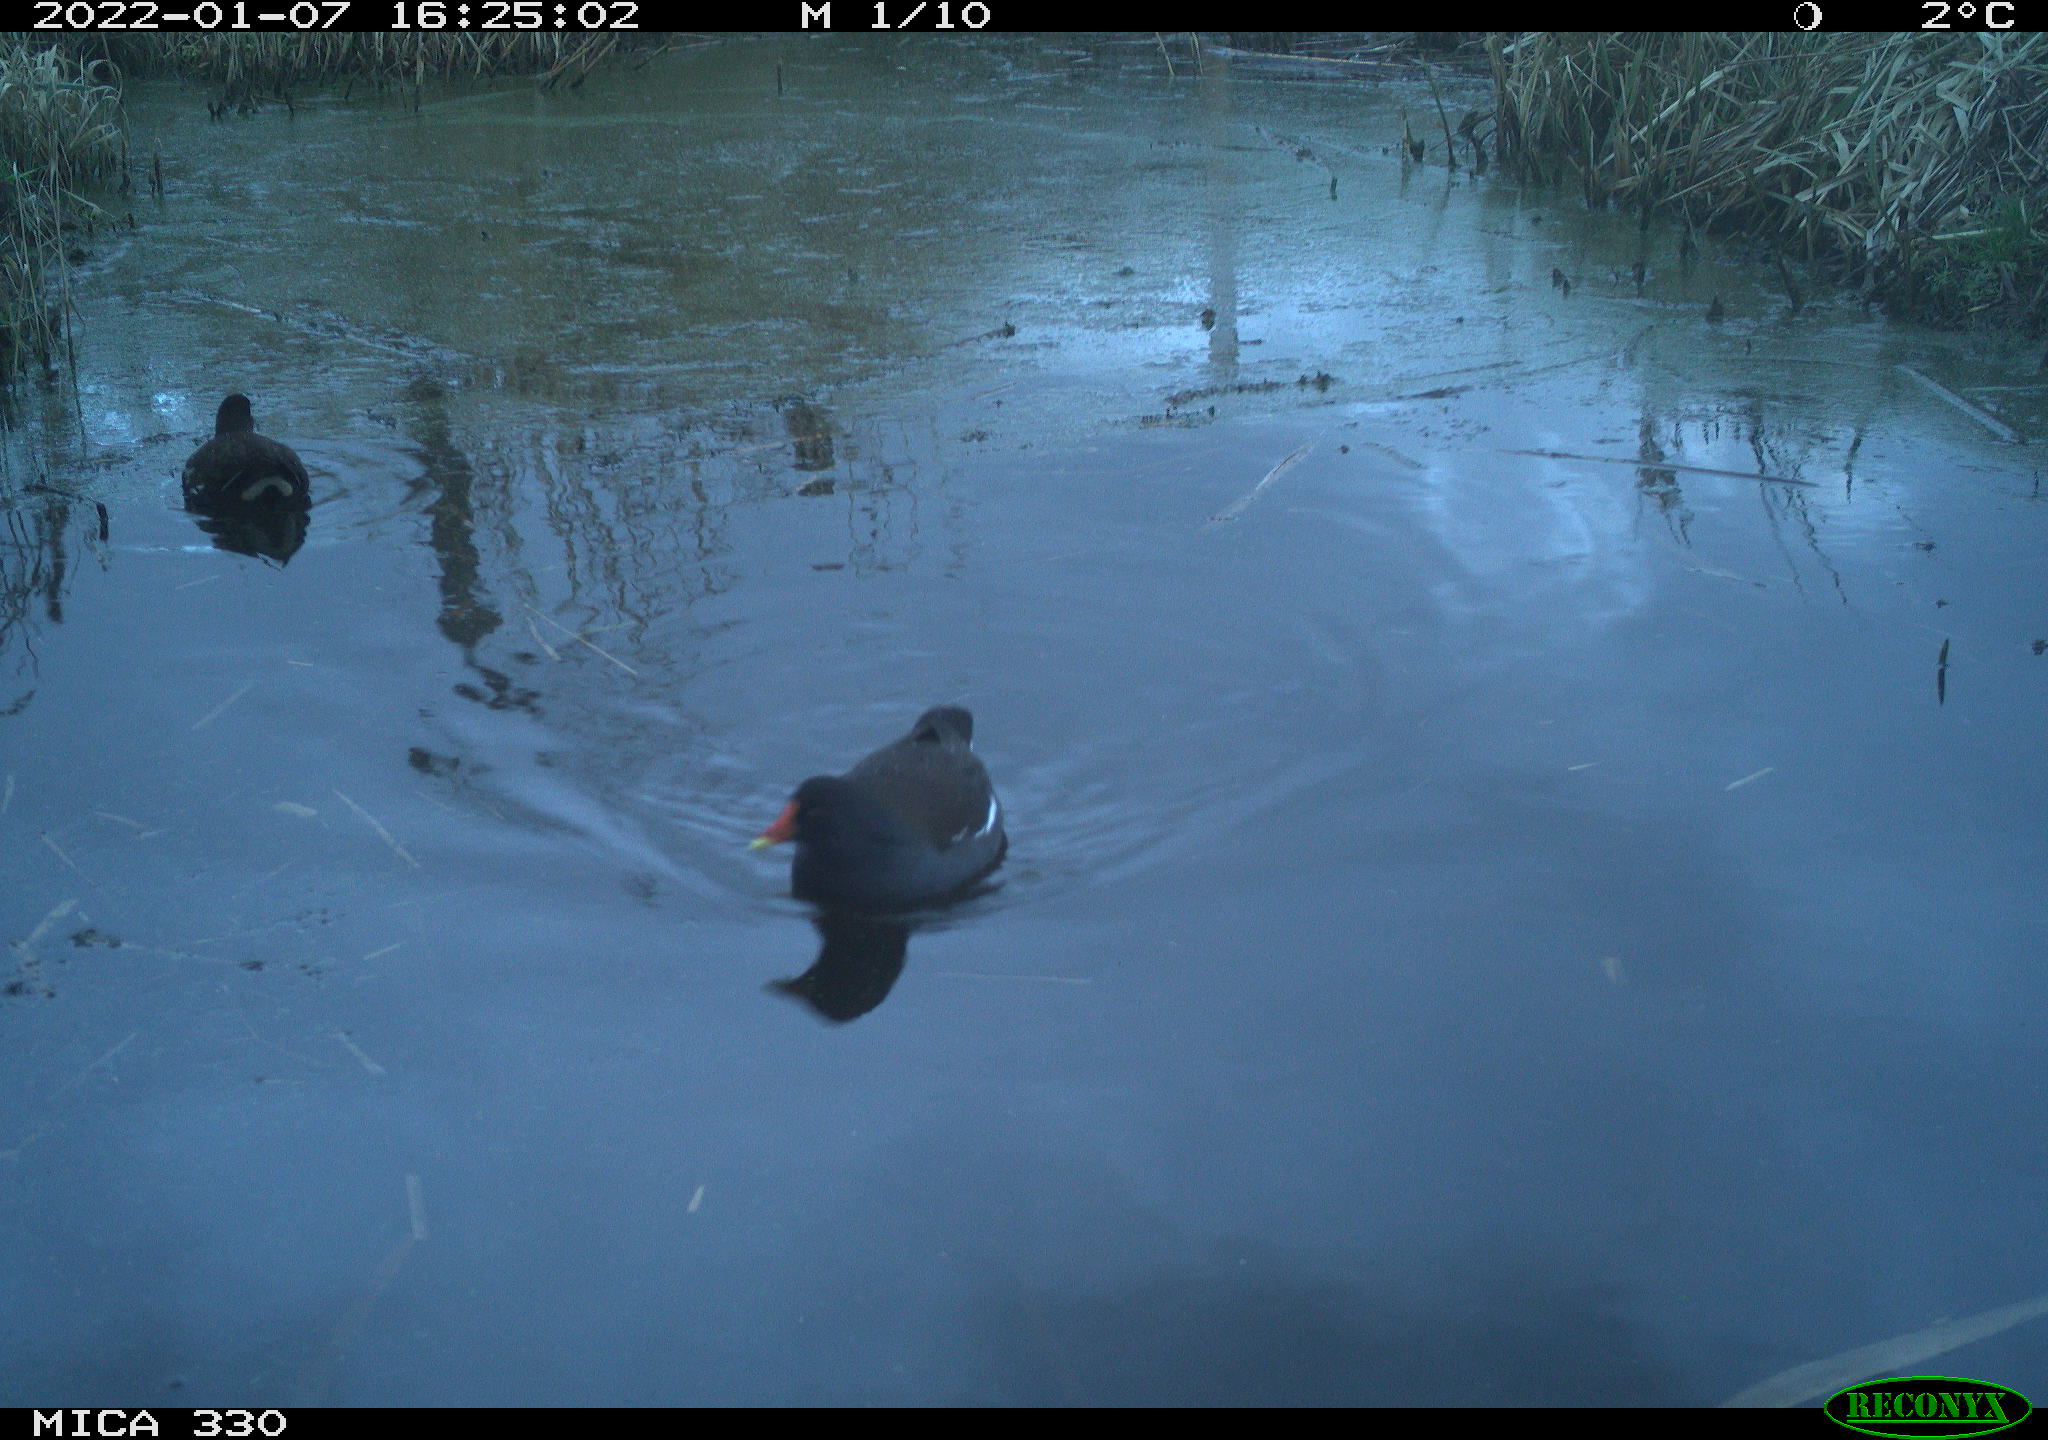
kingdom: Animalia
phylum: Chordata
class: Aves
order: Gruiformes
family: Rallidae
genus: Gallinula
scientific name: Gallinula chloropus
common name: Common moorhen
